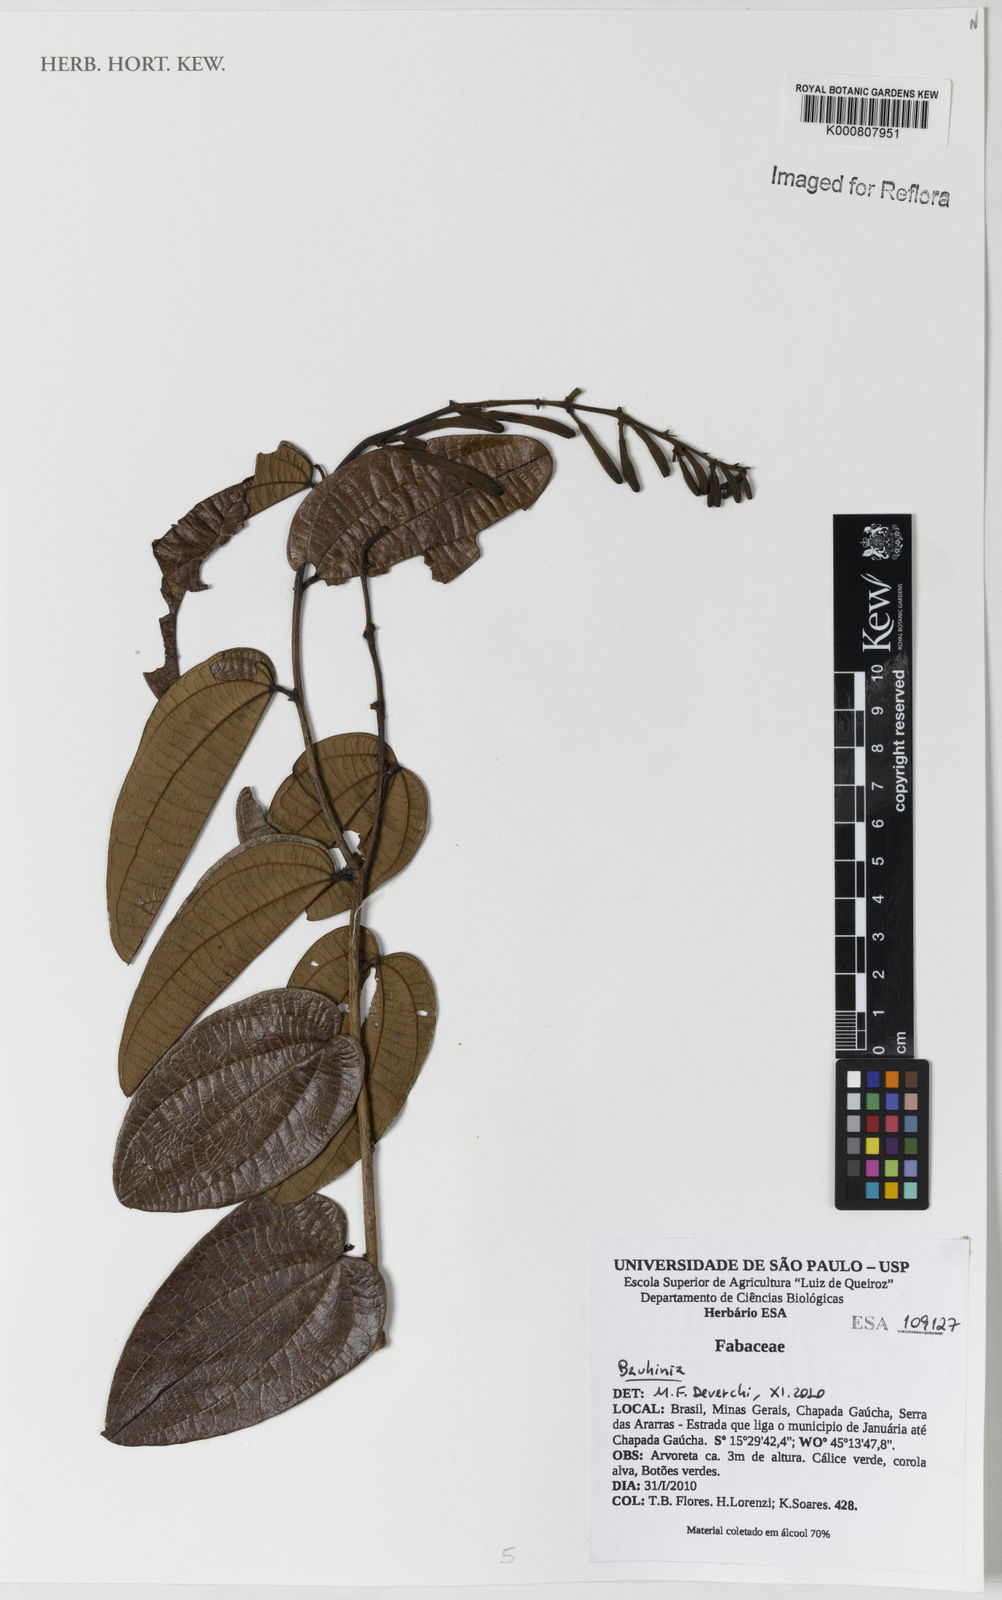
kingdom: Plantae
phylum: Tracheophyta
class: Magnoliopsida
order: Fabales
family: Fabaceae
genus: Bauhinia
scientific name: Bauhinia
